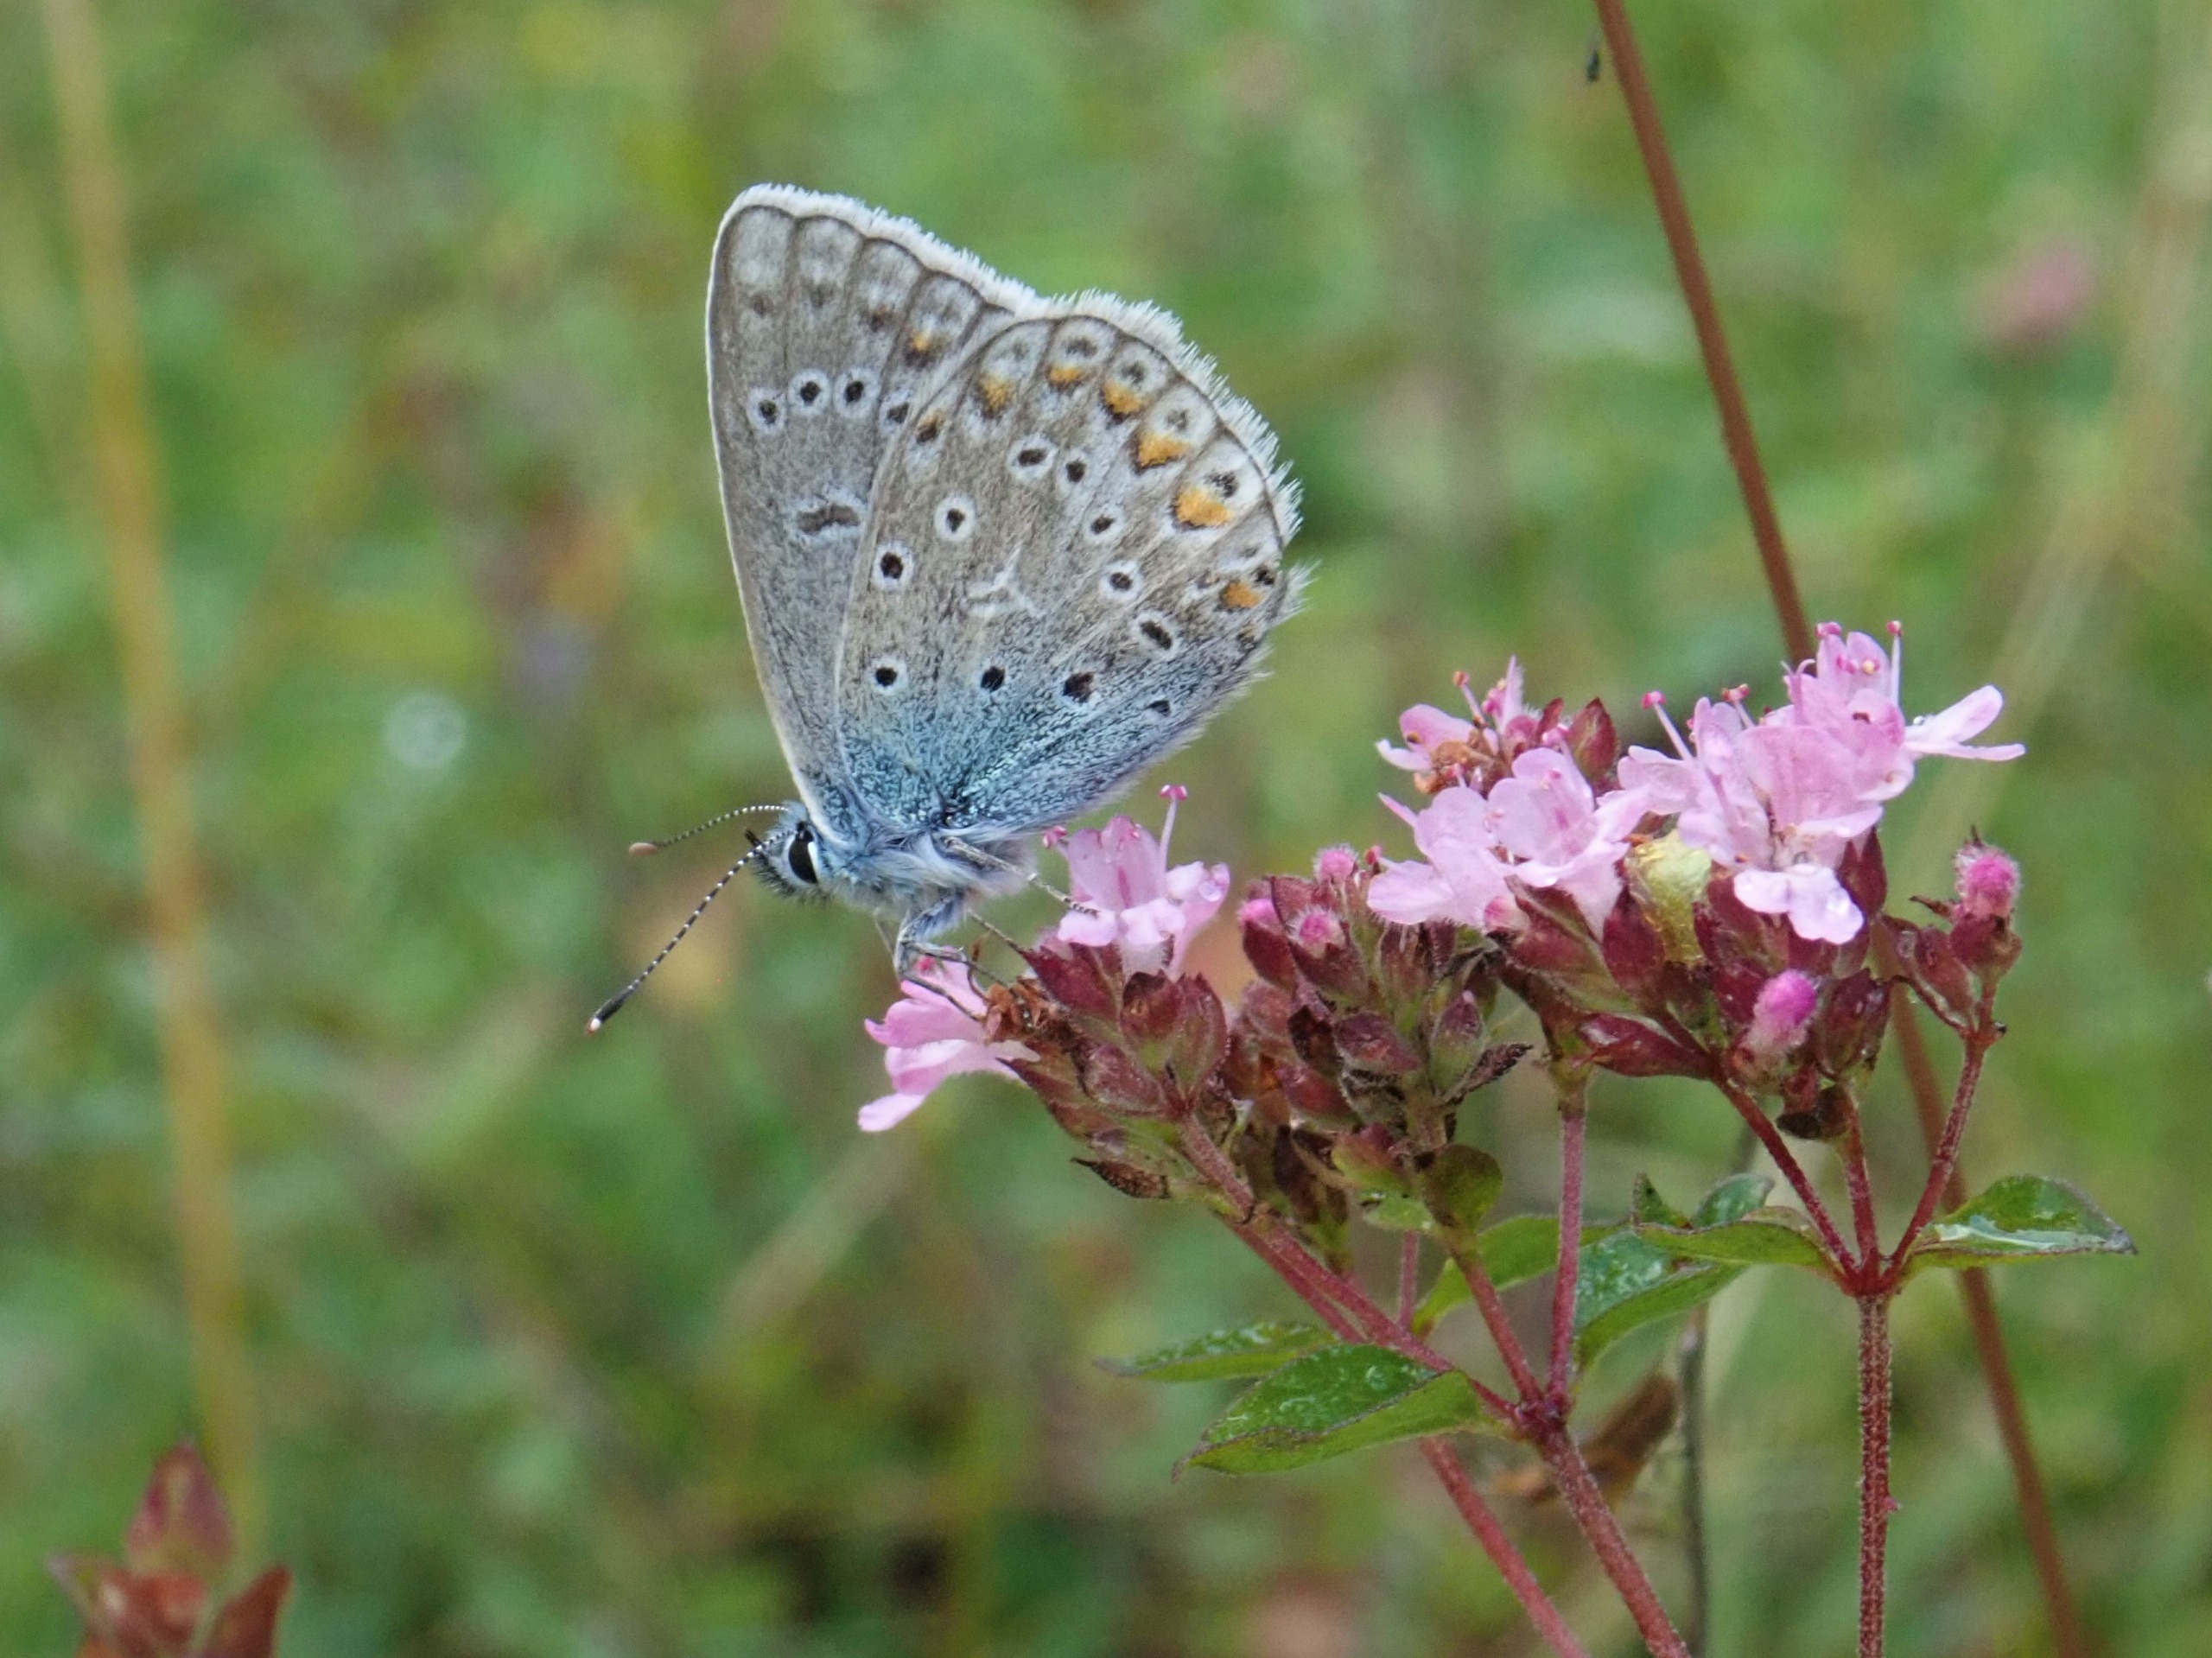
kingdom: Animalia
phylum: Arthropoda
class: Insecta
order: Lepidoptera
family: Lycaenidae
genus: Polyommatus
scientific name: Polyommatus icarus
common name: Almindelig blåfugl
